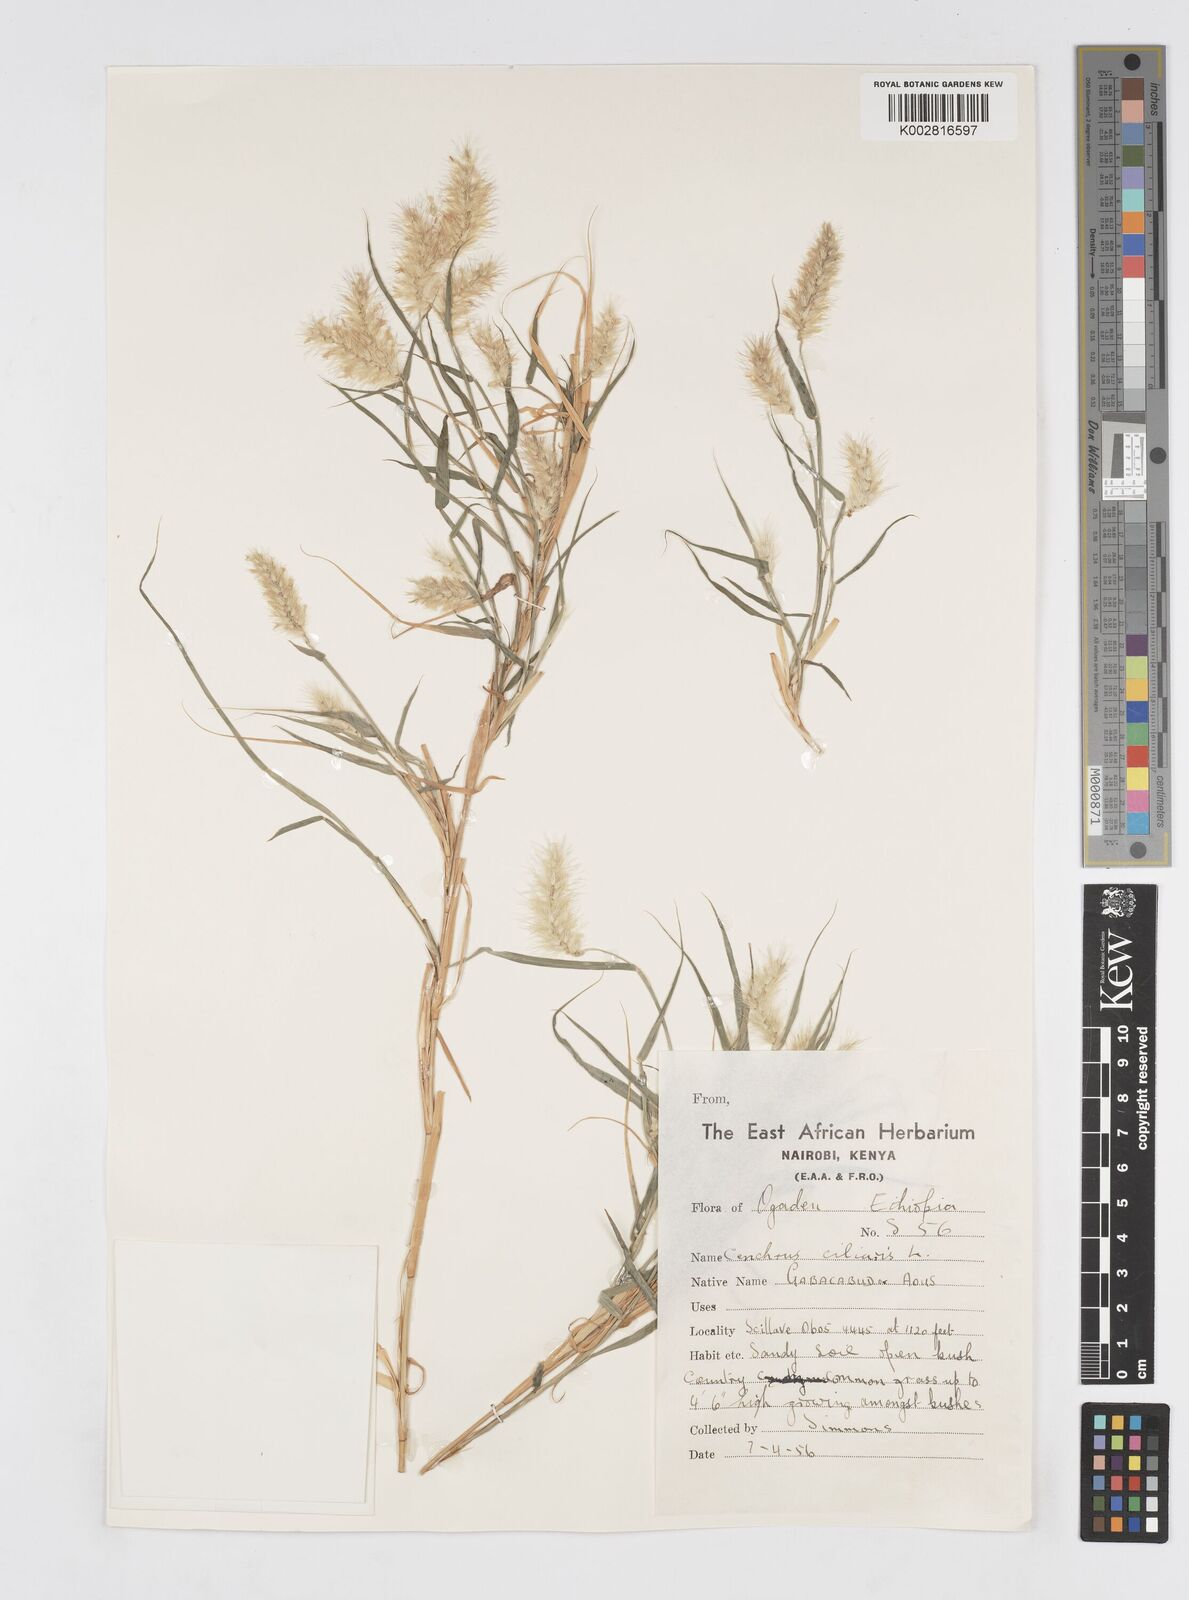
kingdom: Plantae
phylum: Tracheophyta
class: Liliopsida
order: Poales
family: Poaceae
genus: Cenchrus
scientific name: Cenchrus ciliaris
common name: Buffelgrass
